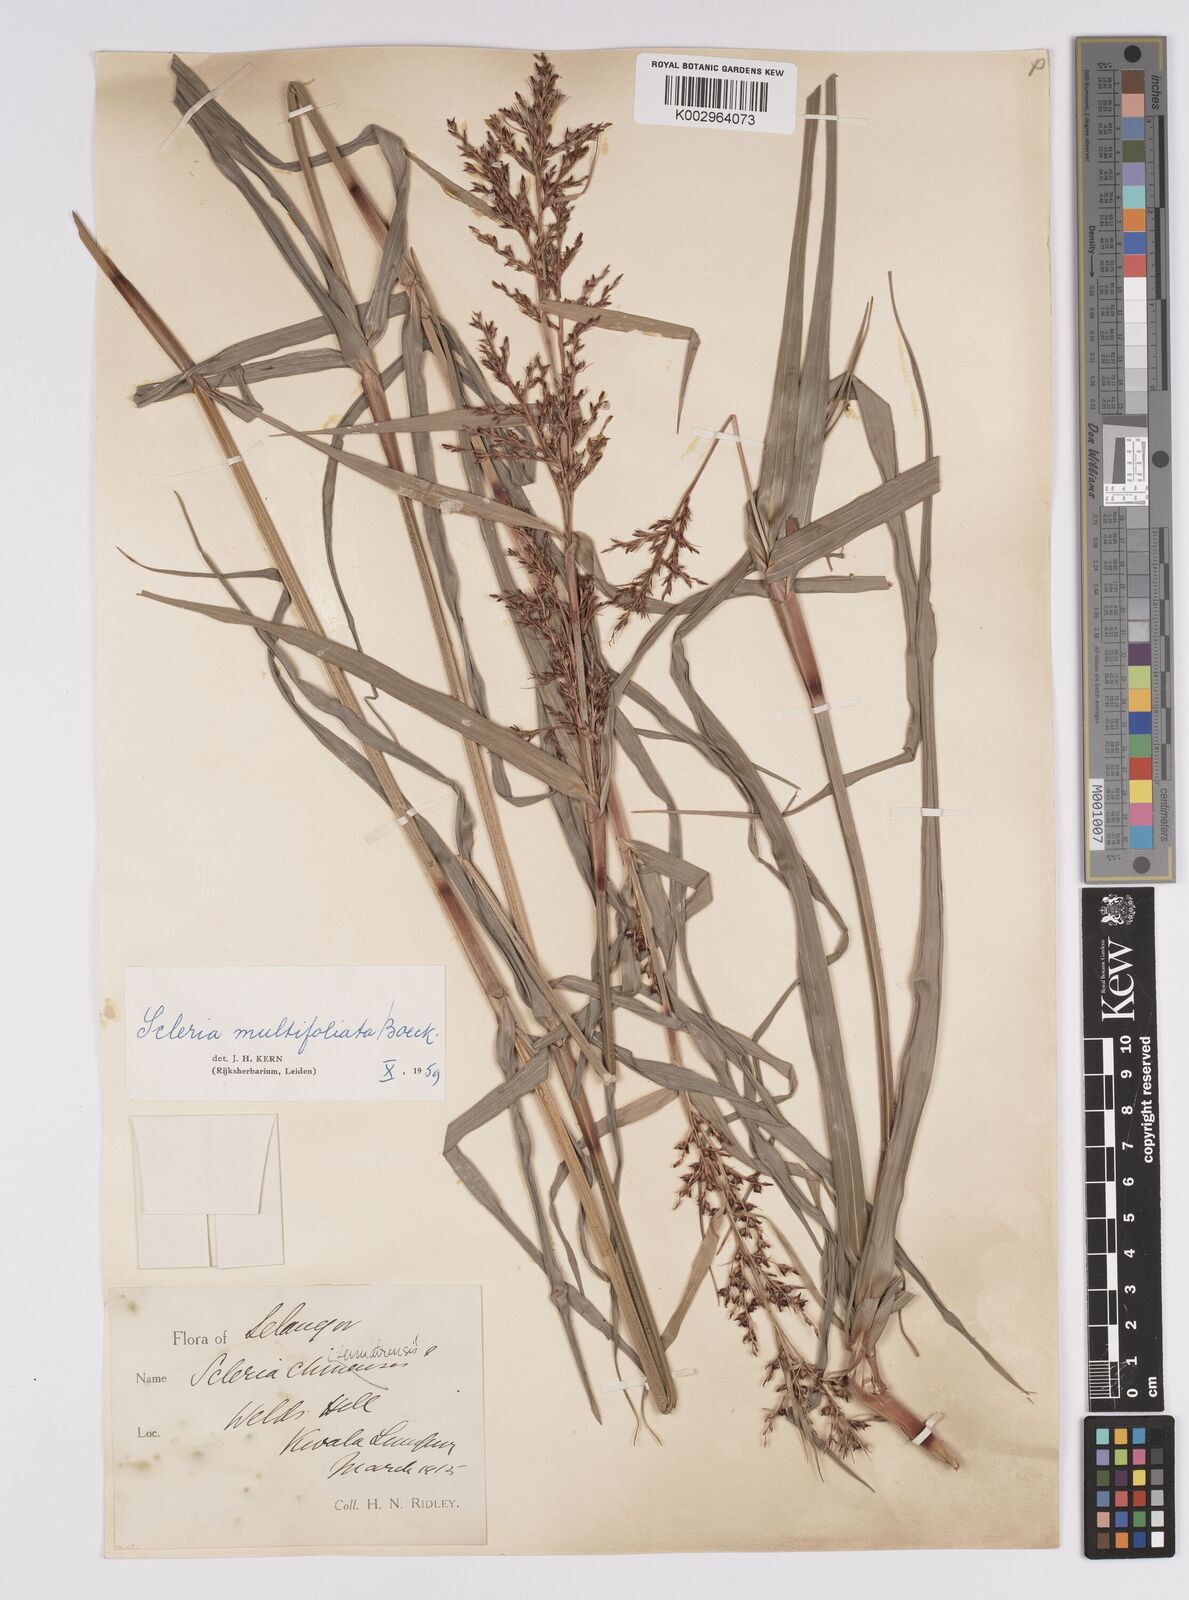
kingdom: Plantae
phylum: Tracheophyta
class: Liliopsida
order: Poales
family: Cyperaceae
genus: Scleria
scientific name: Scleria purpurascens
